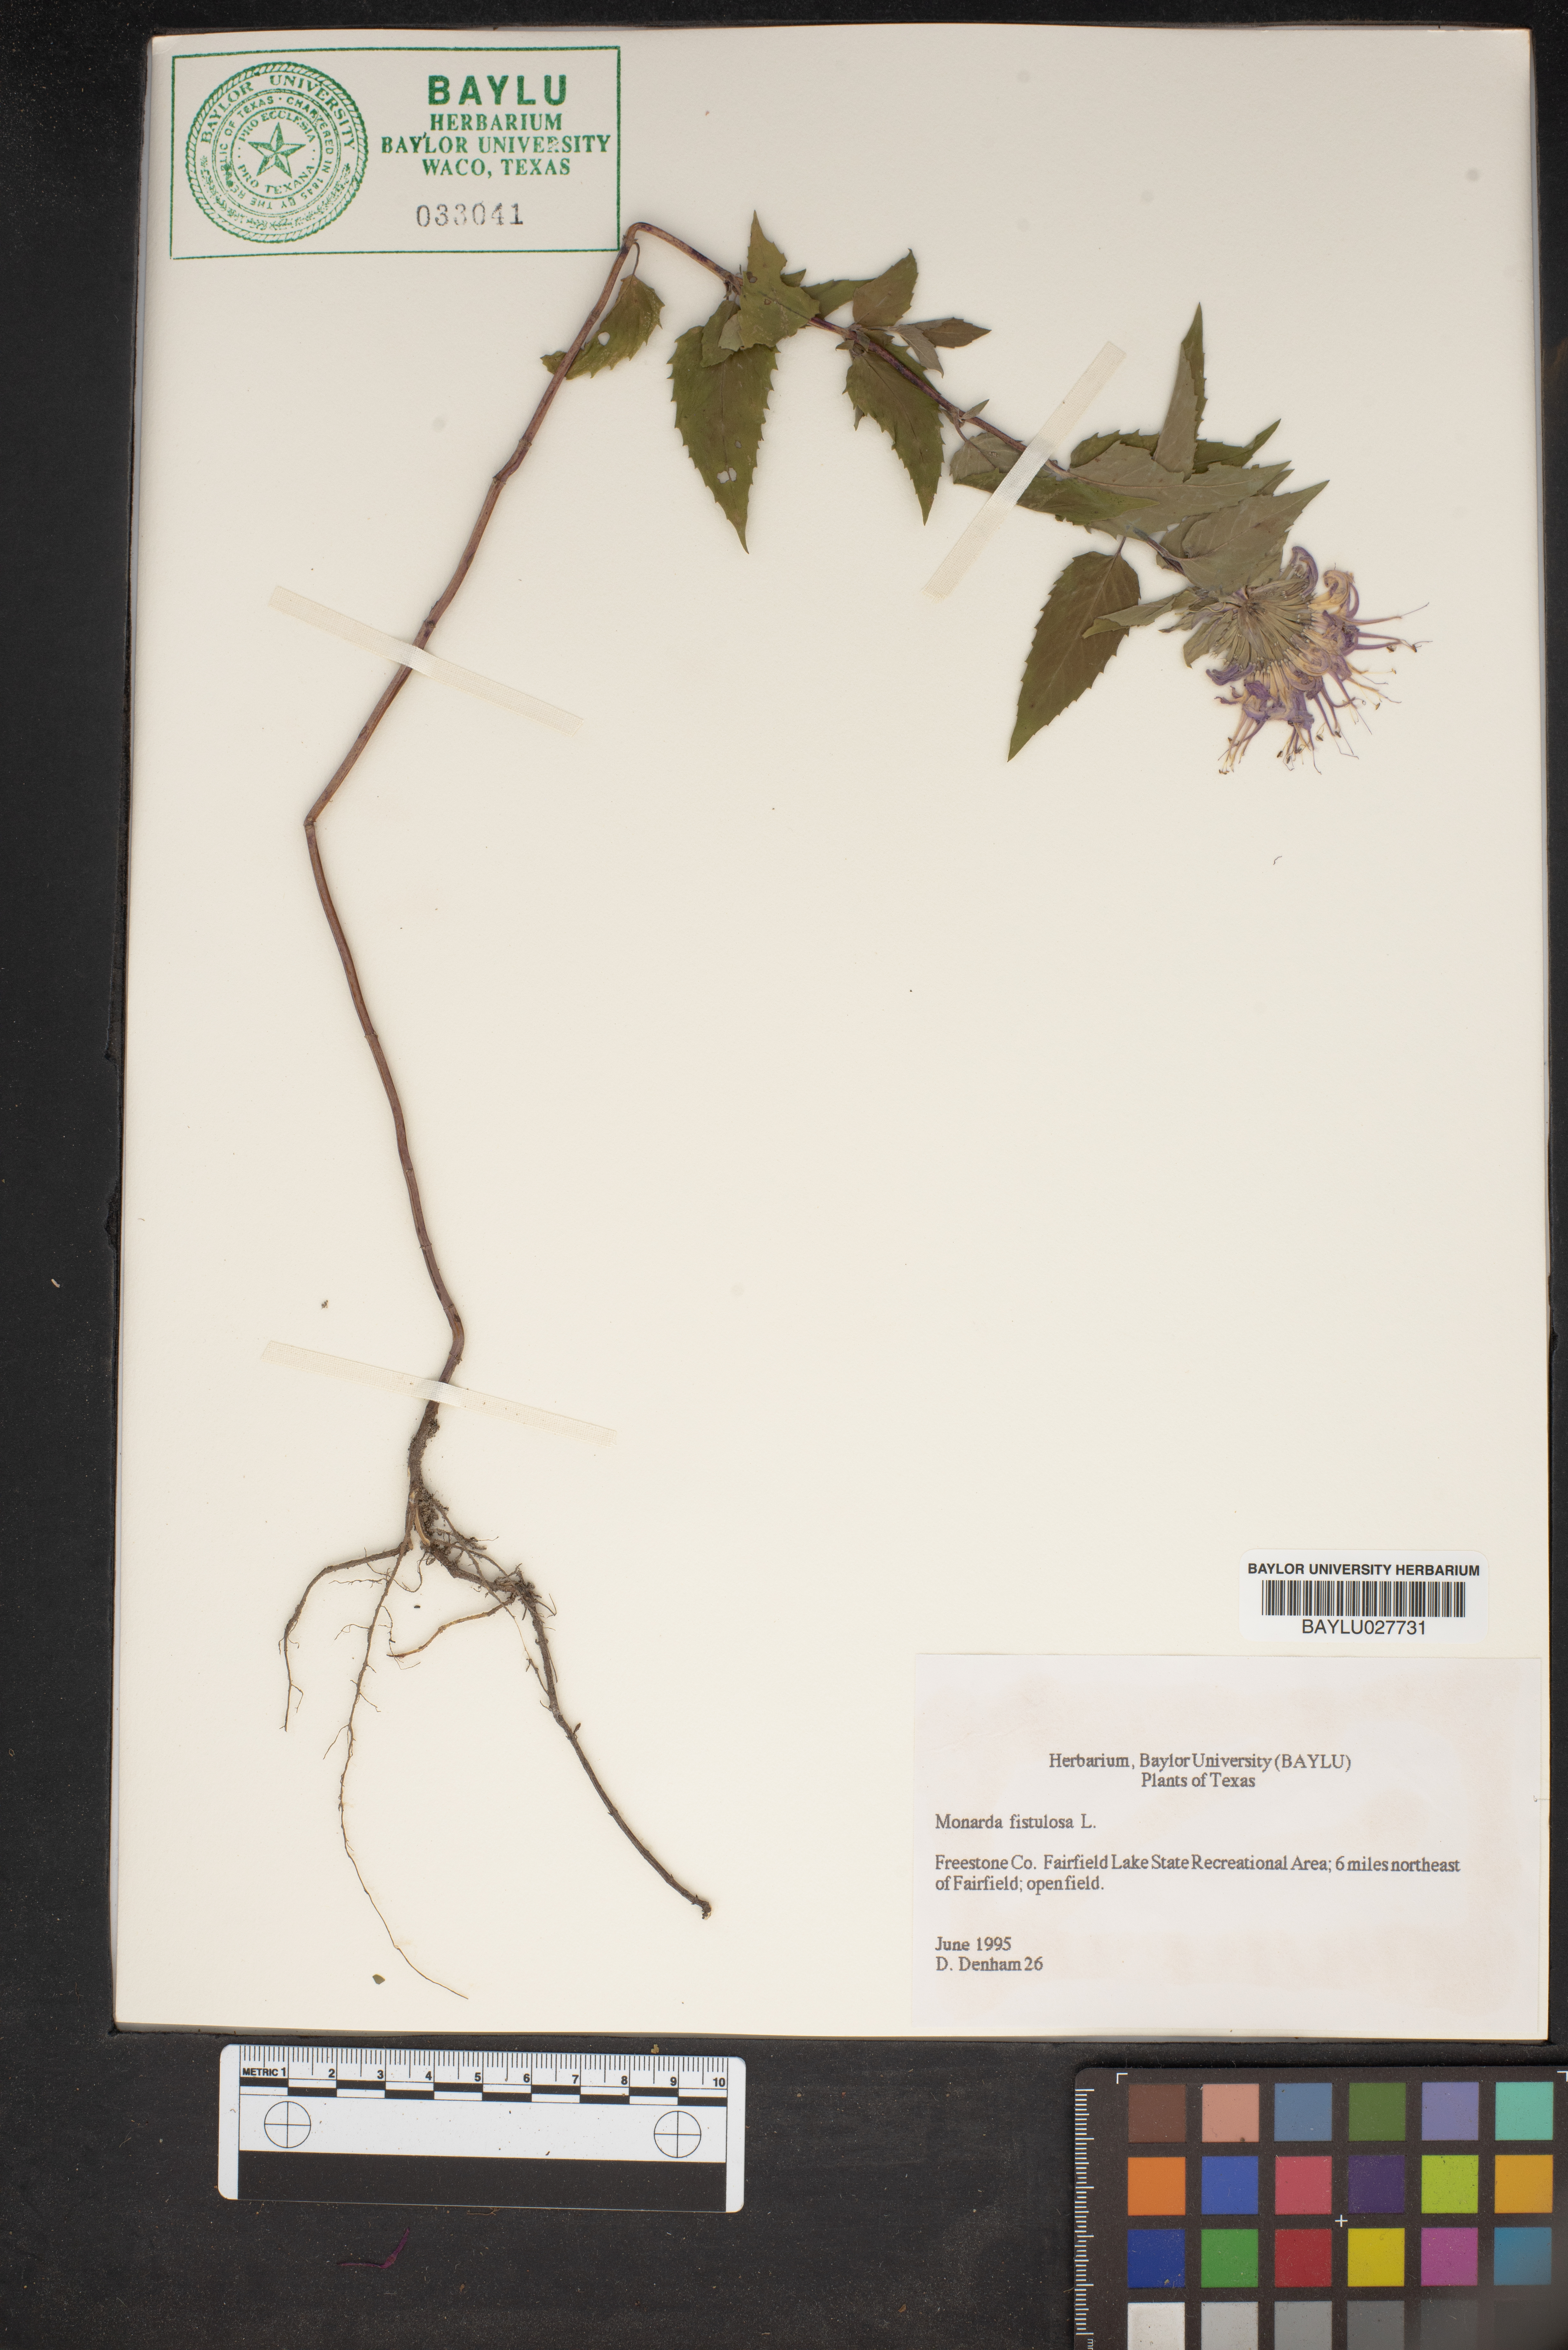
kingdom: Plantae
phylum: Tracheophyta
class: Magnoliopsida
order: Lamiales
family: Lamiaceae
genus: Monarda
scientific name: Monarda fistulosa
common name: Purple beebalm
